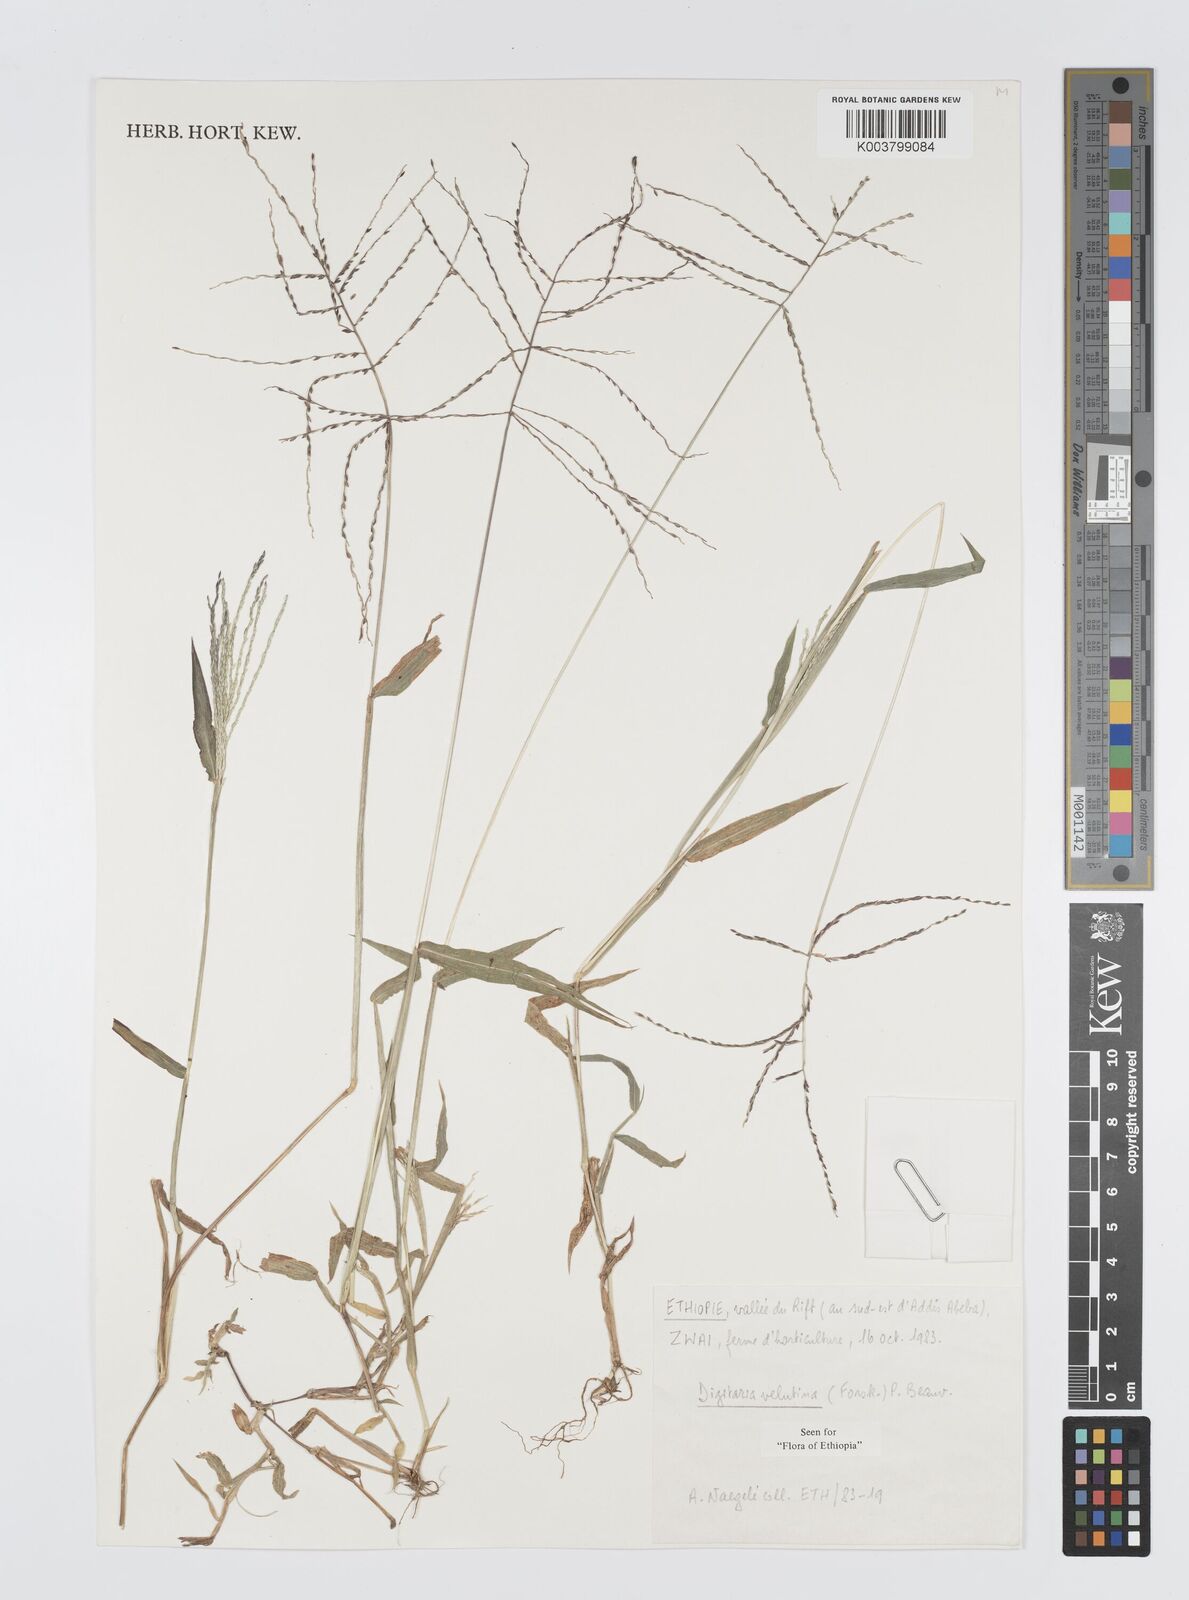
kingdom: Plantae
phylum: Tracheophyta
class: Liliopsida
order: Poales
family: Poaceae
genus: Digitaria
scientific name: Digitaria velutina
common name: Long-plume finger grass
